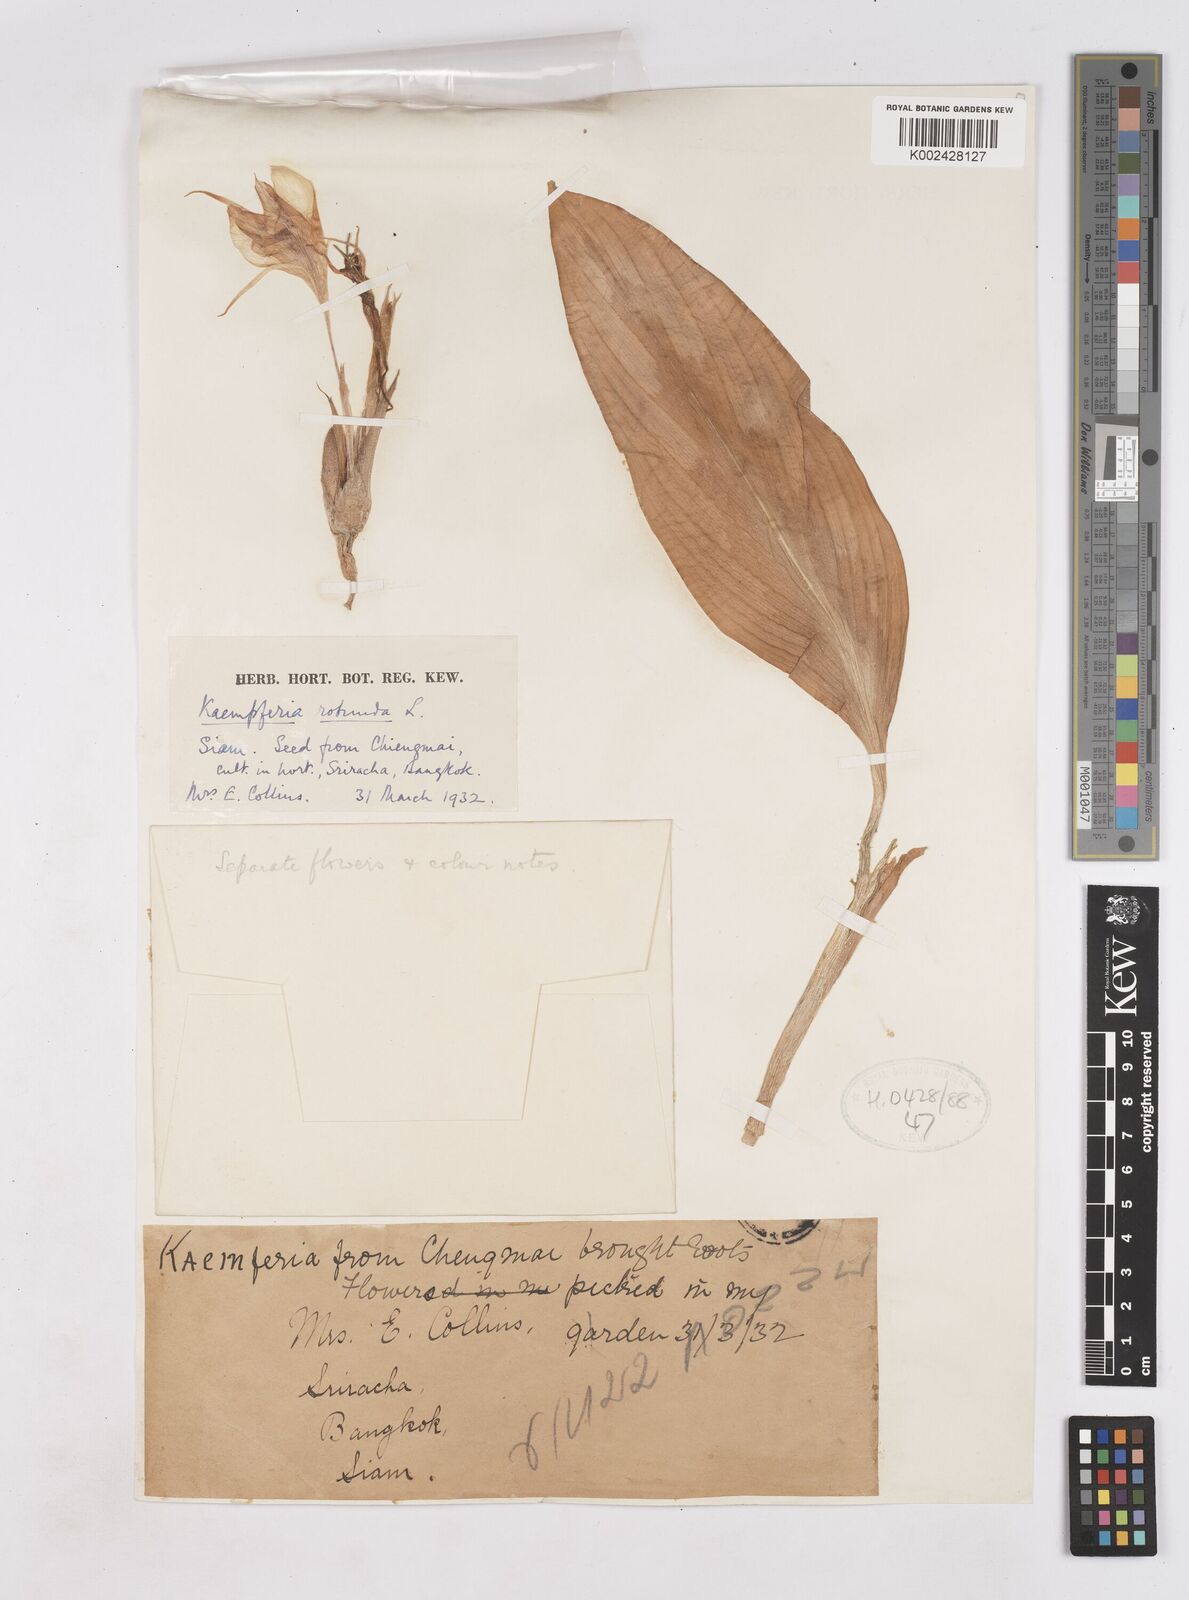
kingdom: Plantae
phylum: Tracheophyta
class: Liliopsida
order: Zingiberales
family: Zingiberaceae
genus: Kaempferia
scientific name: Kaempferia rotunda
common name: Tropical-crocus
